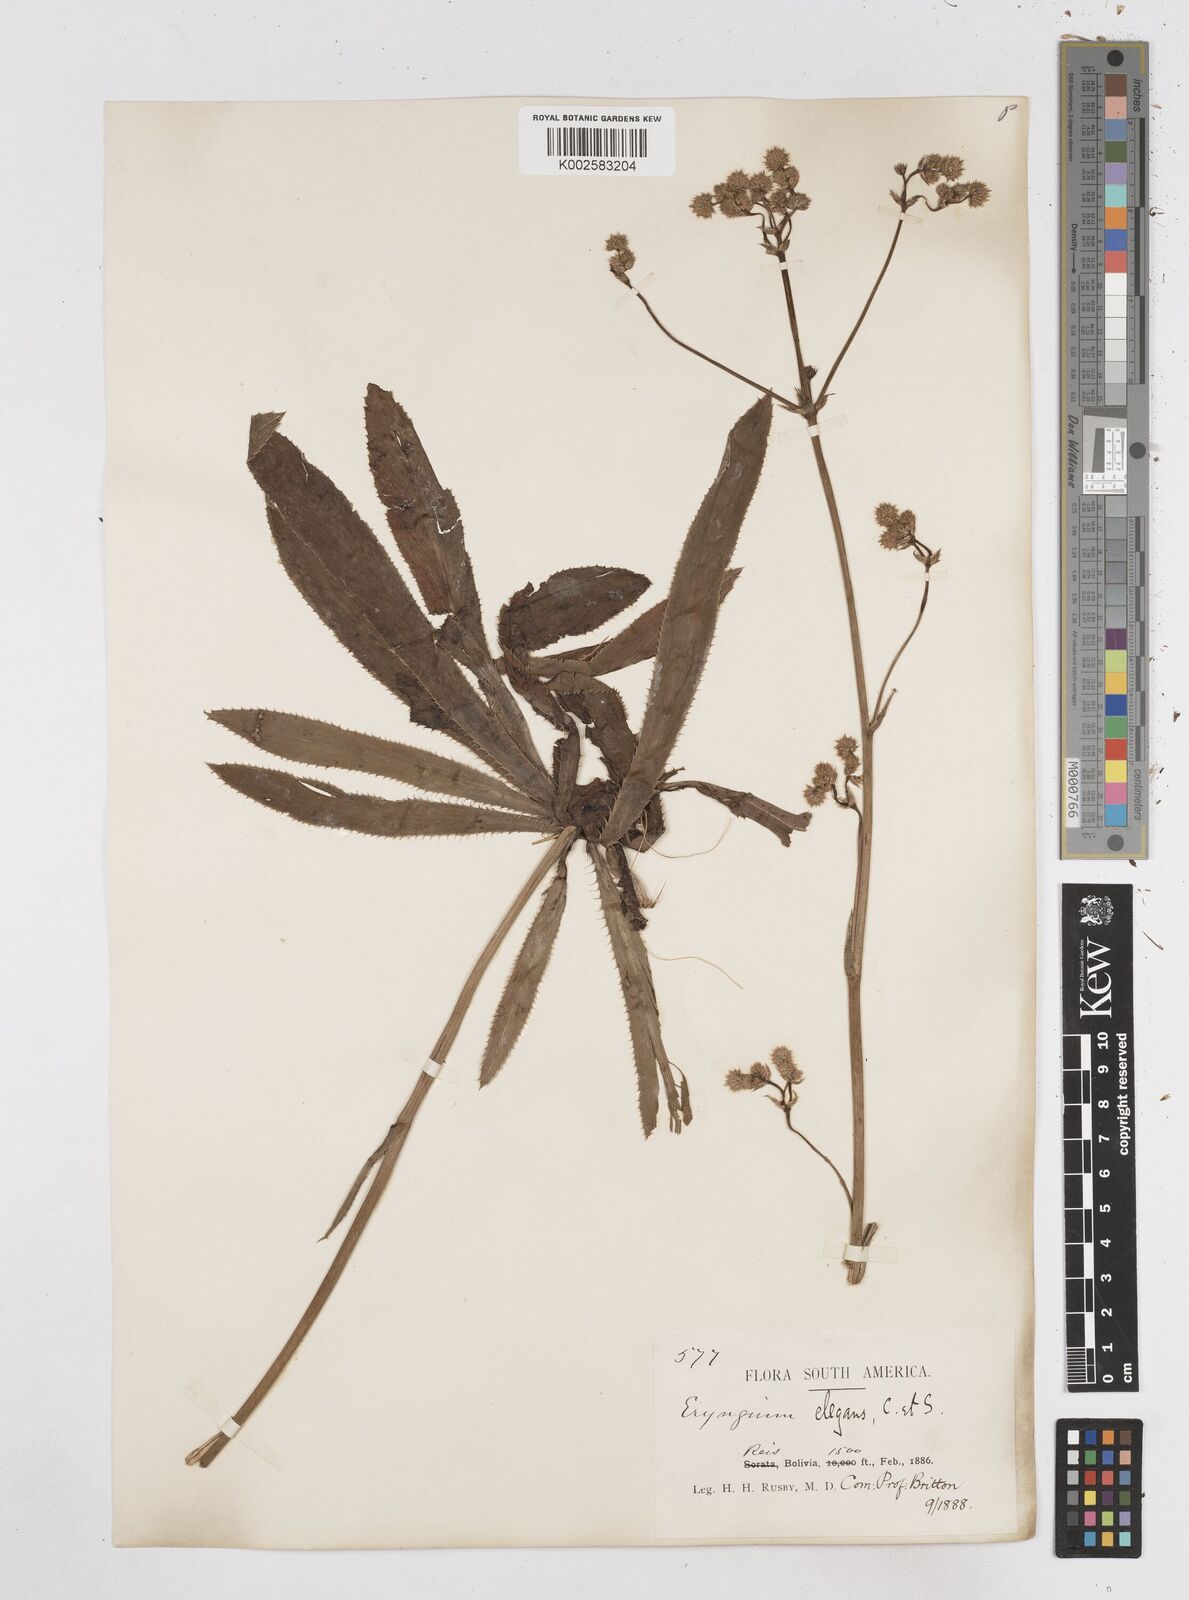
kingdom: Plantae
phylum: Tracheophyta
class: Magnoliopsida
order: Apiales
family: Apiaceae
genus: Eryngium
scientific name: Eryngium elegans
